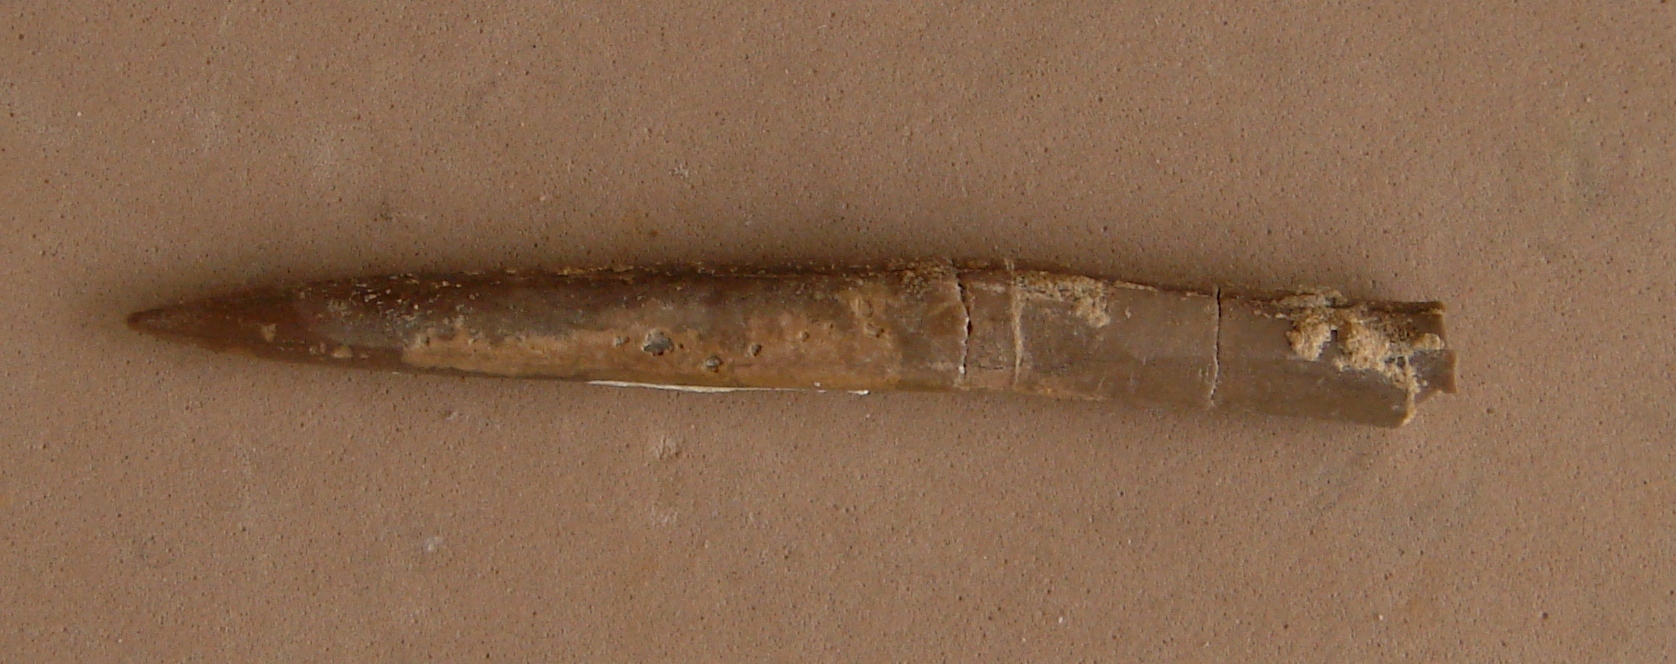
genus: Pachybelemnopsis
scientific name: Pachybelemnopsis
